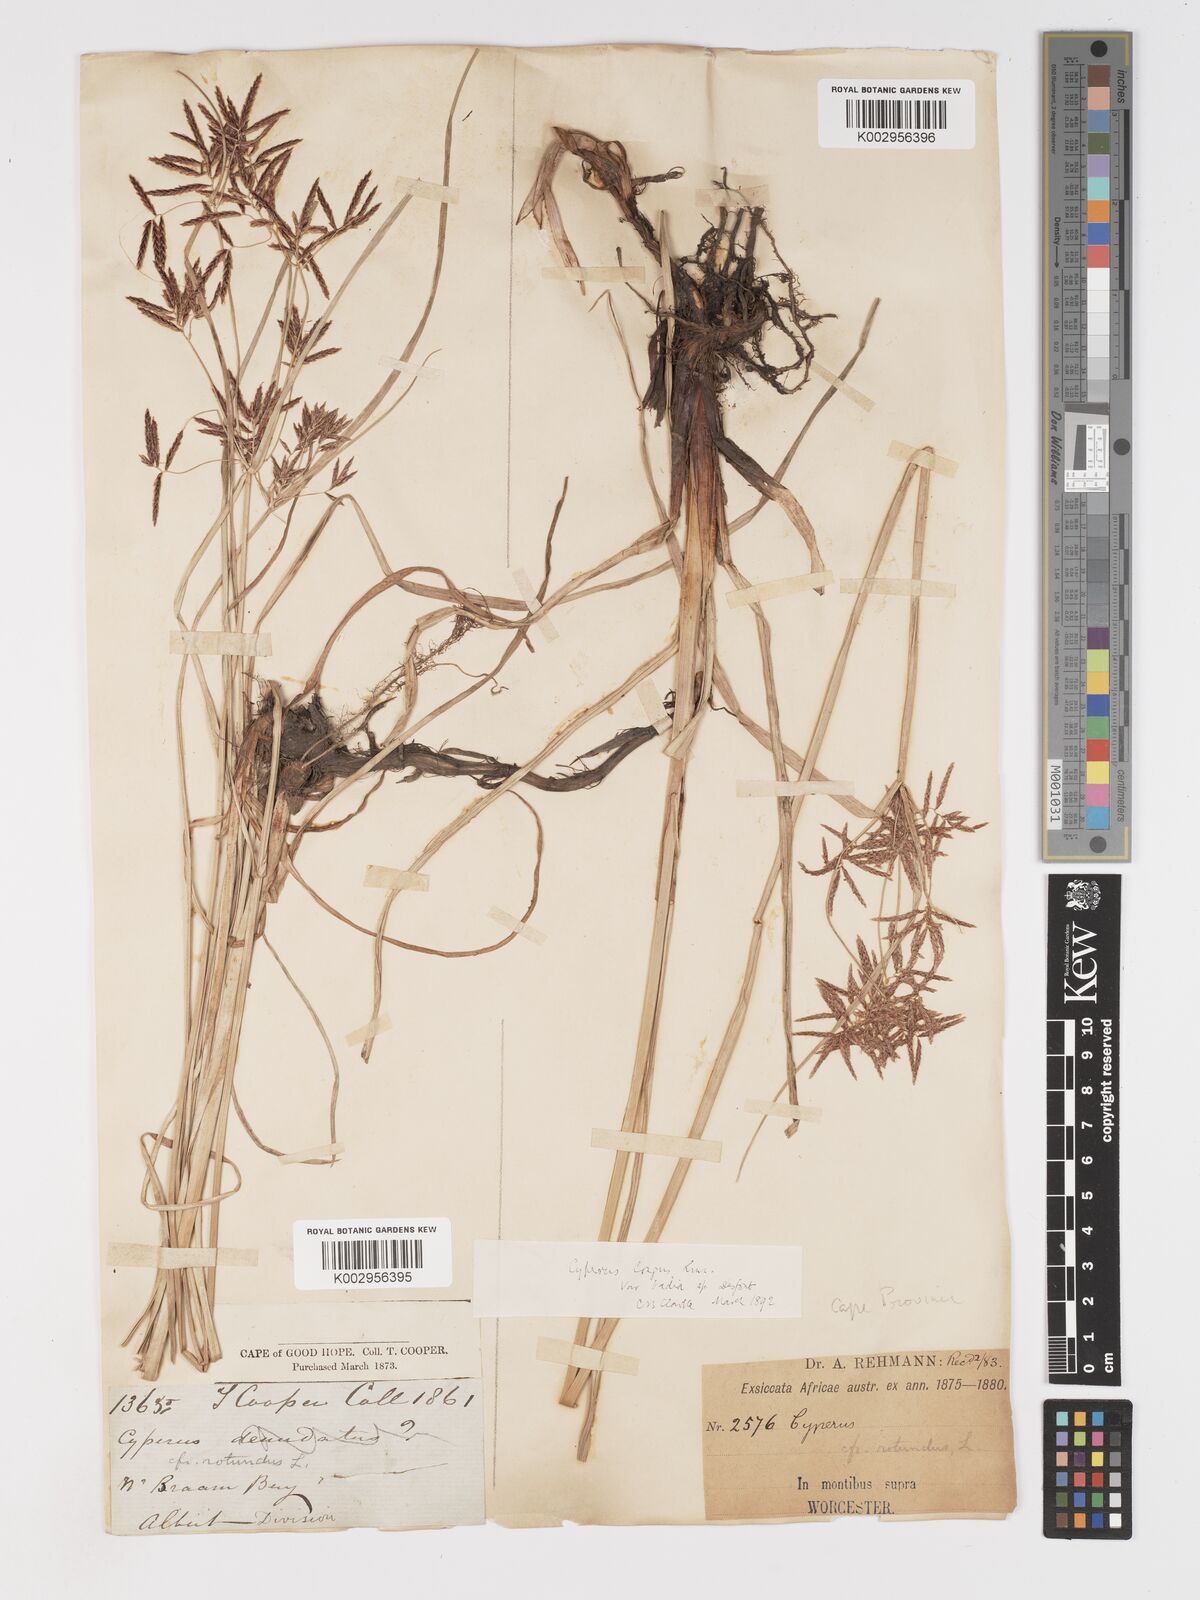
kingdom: Plantae
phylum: Tracheophyta
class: Liliopsida
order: Poales
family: Cyperaceae
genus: Cyperus
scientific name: Cyperus longus
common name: Galingale
